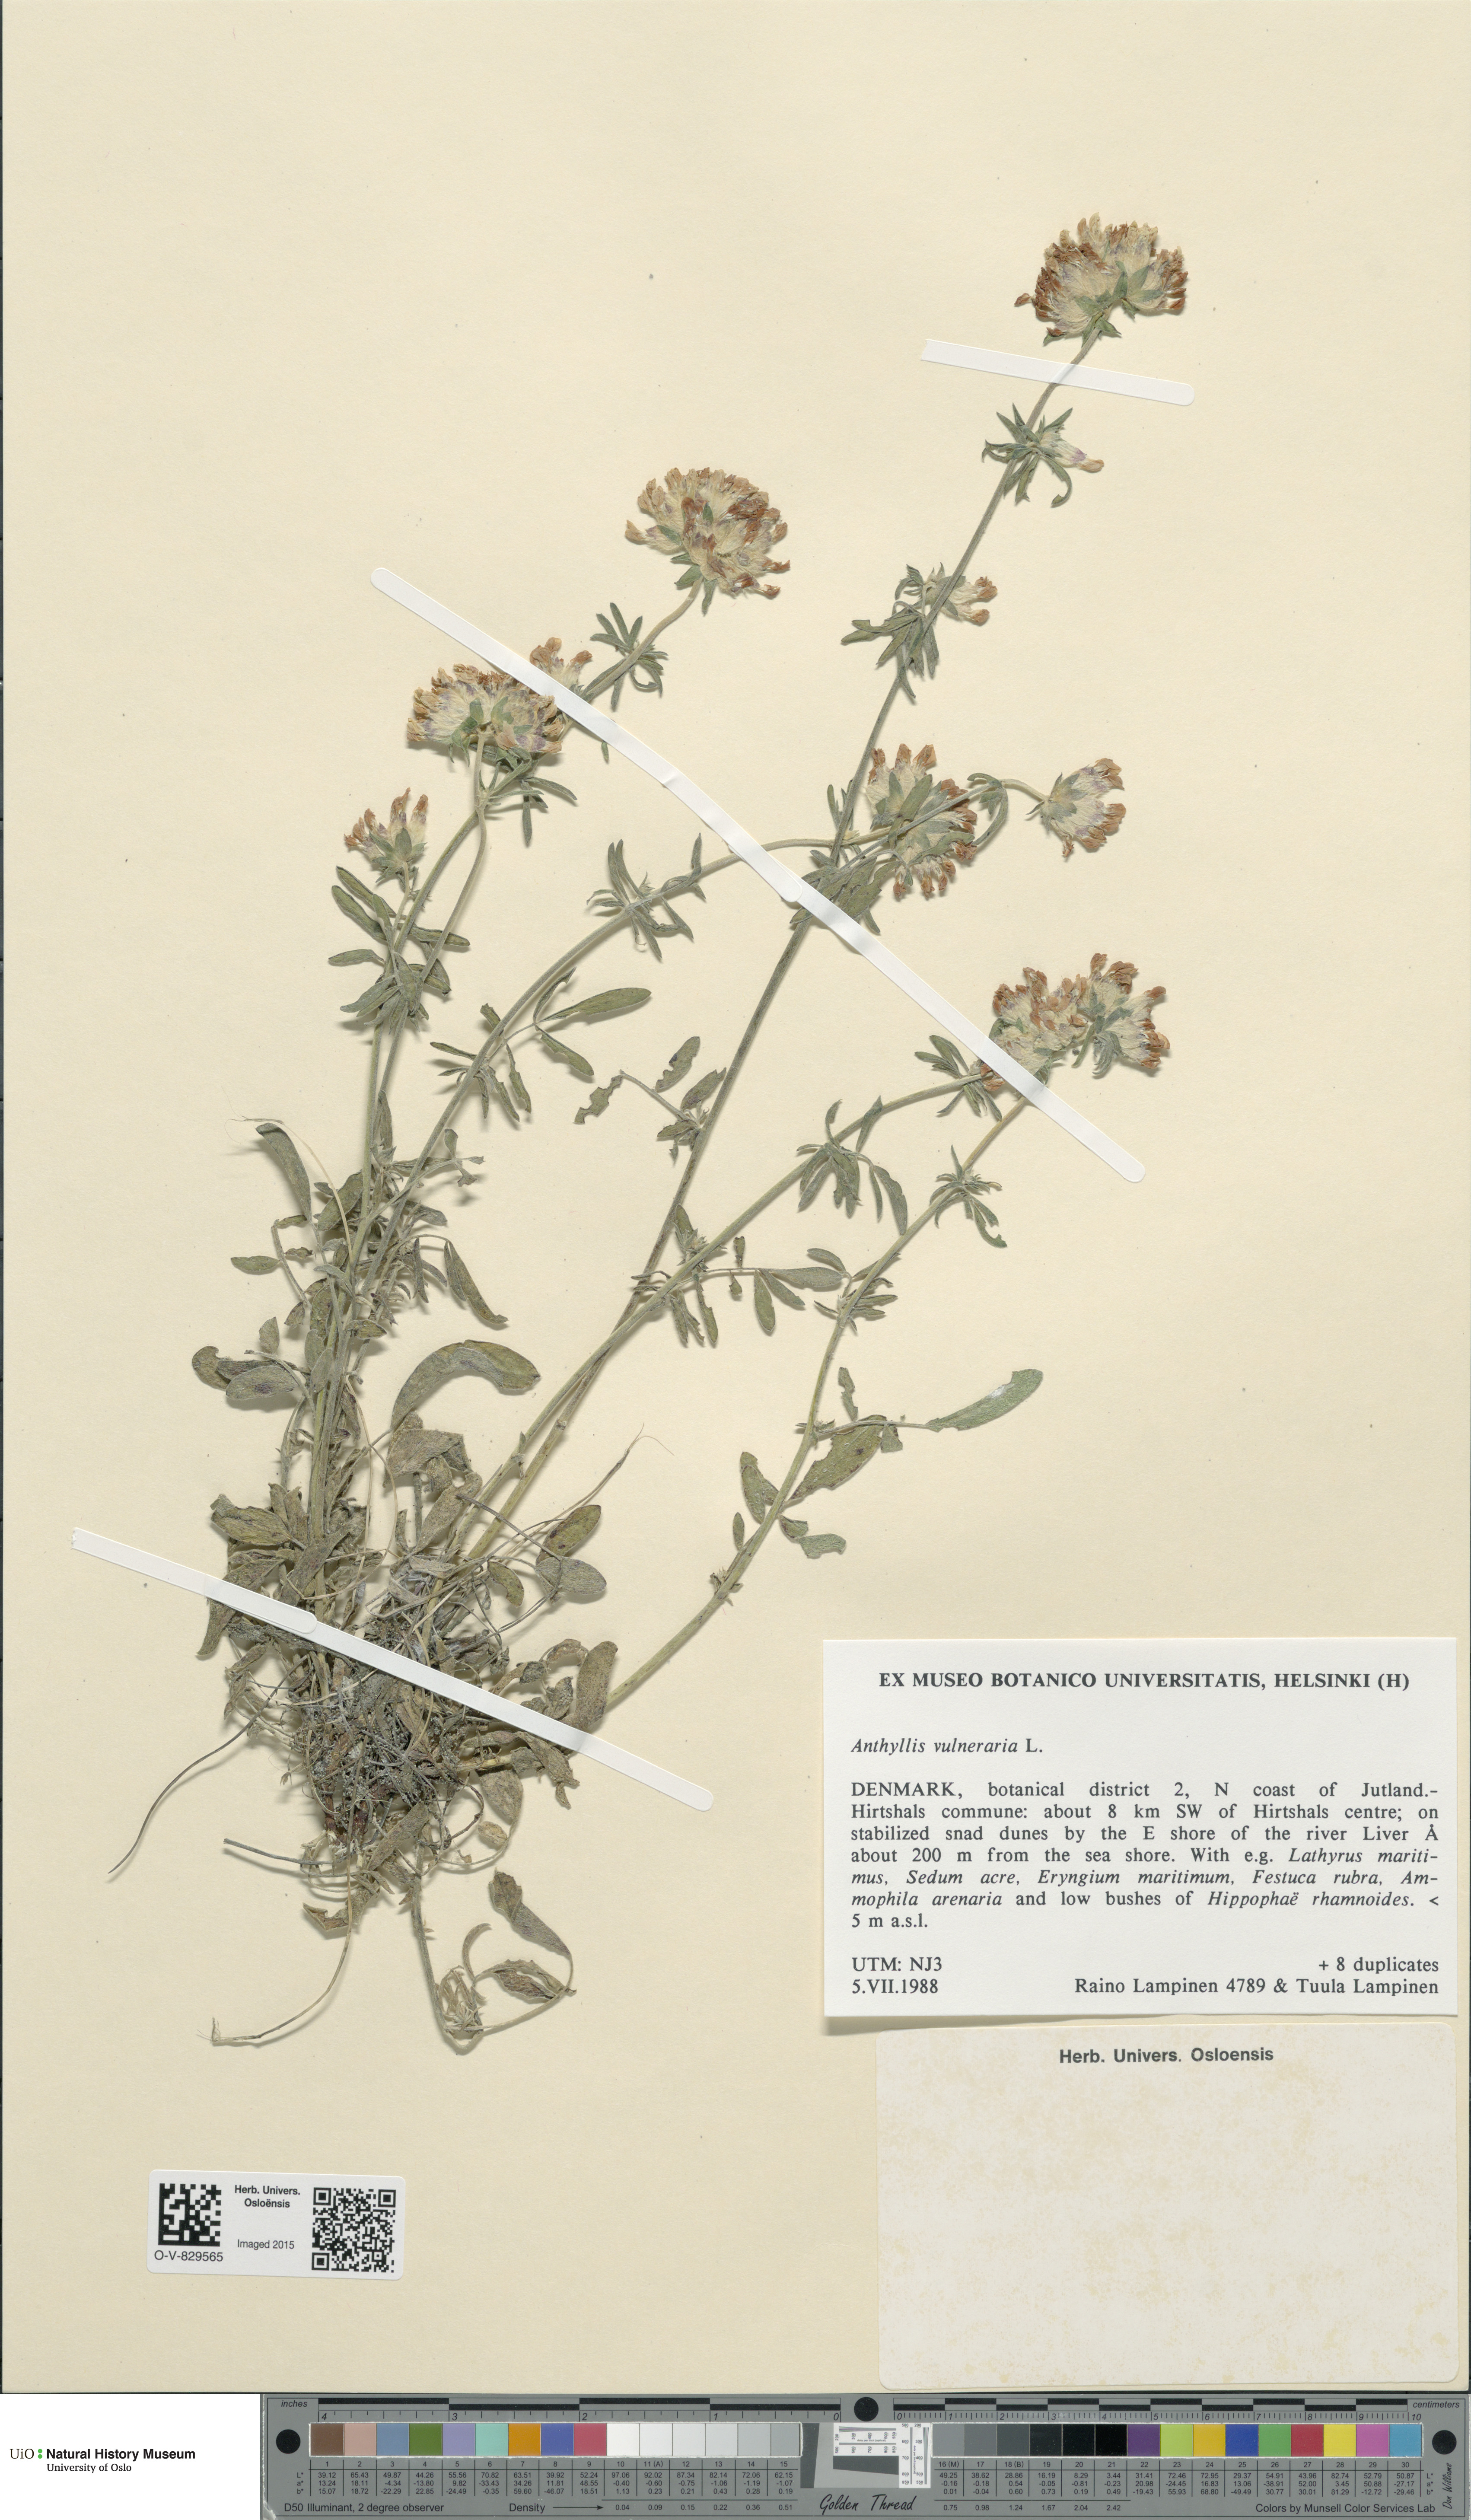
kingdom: Plantae
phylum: Tracheophyta
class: Magnoliopsida
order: Fabales
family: Fabaceae
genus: Anthyllis
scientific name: Anthyllis vulneraria
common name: Kidney vetch
